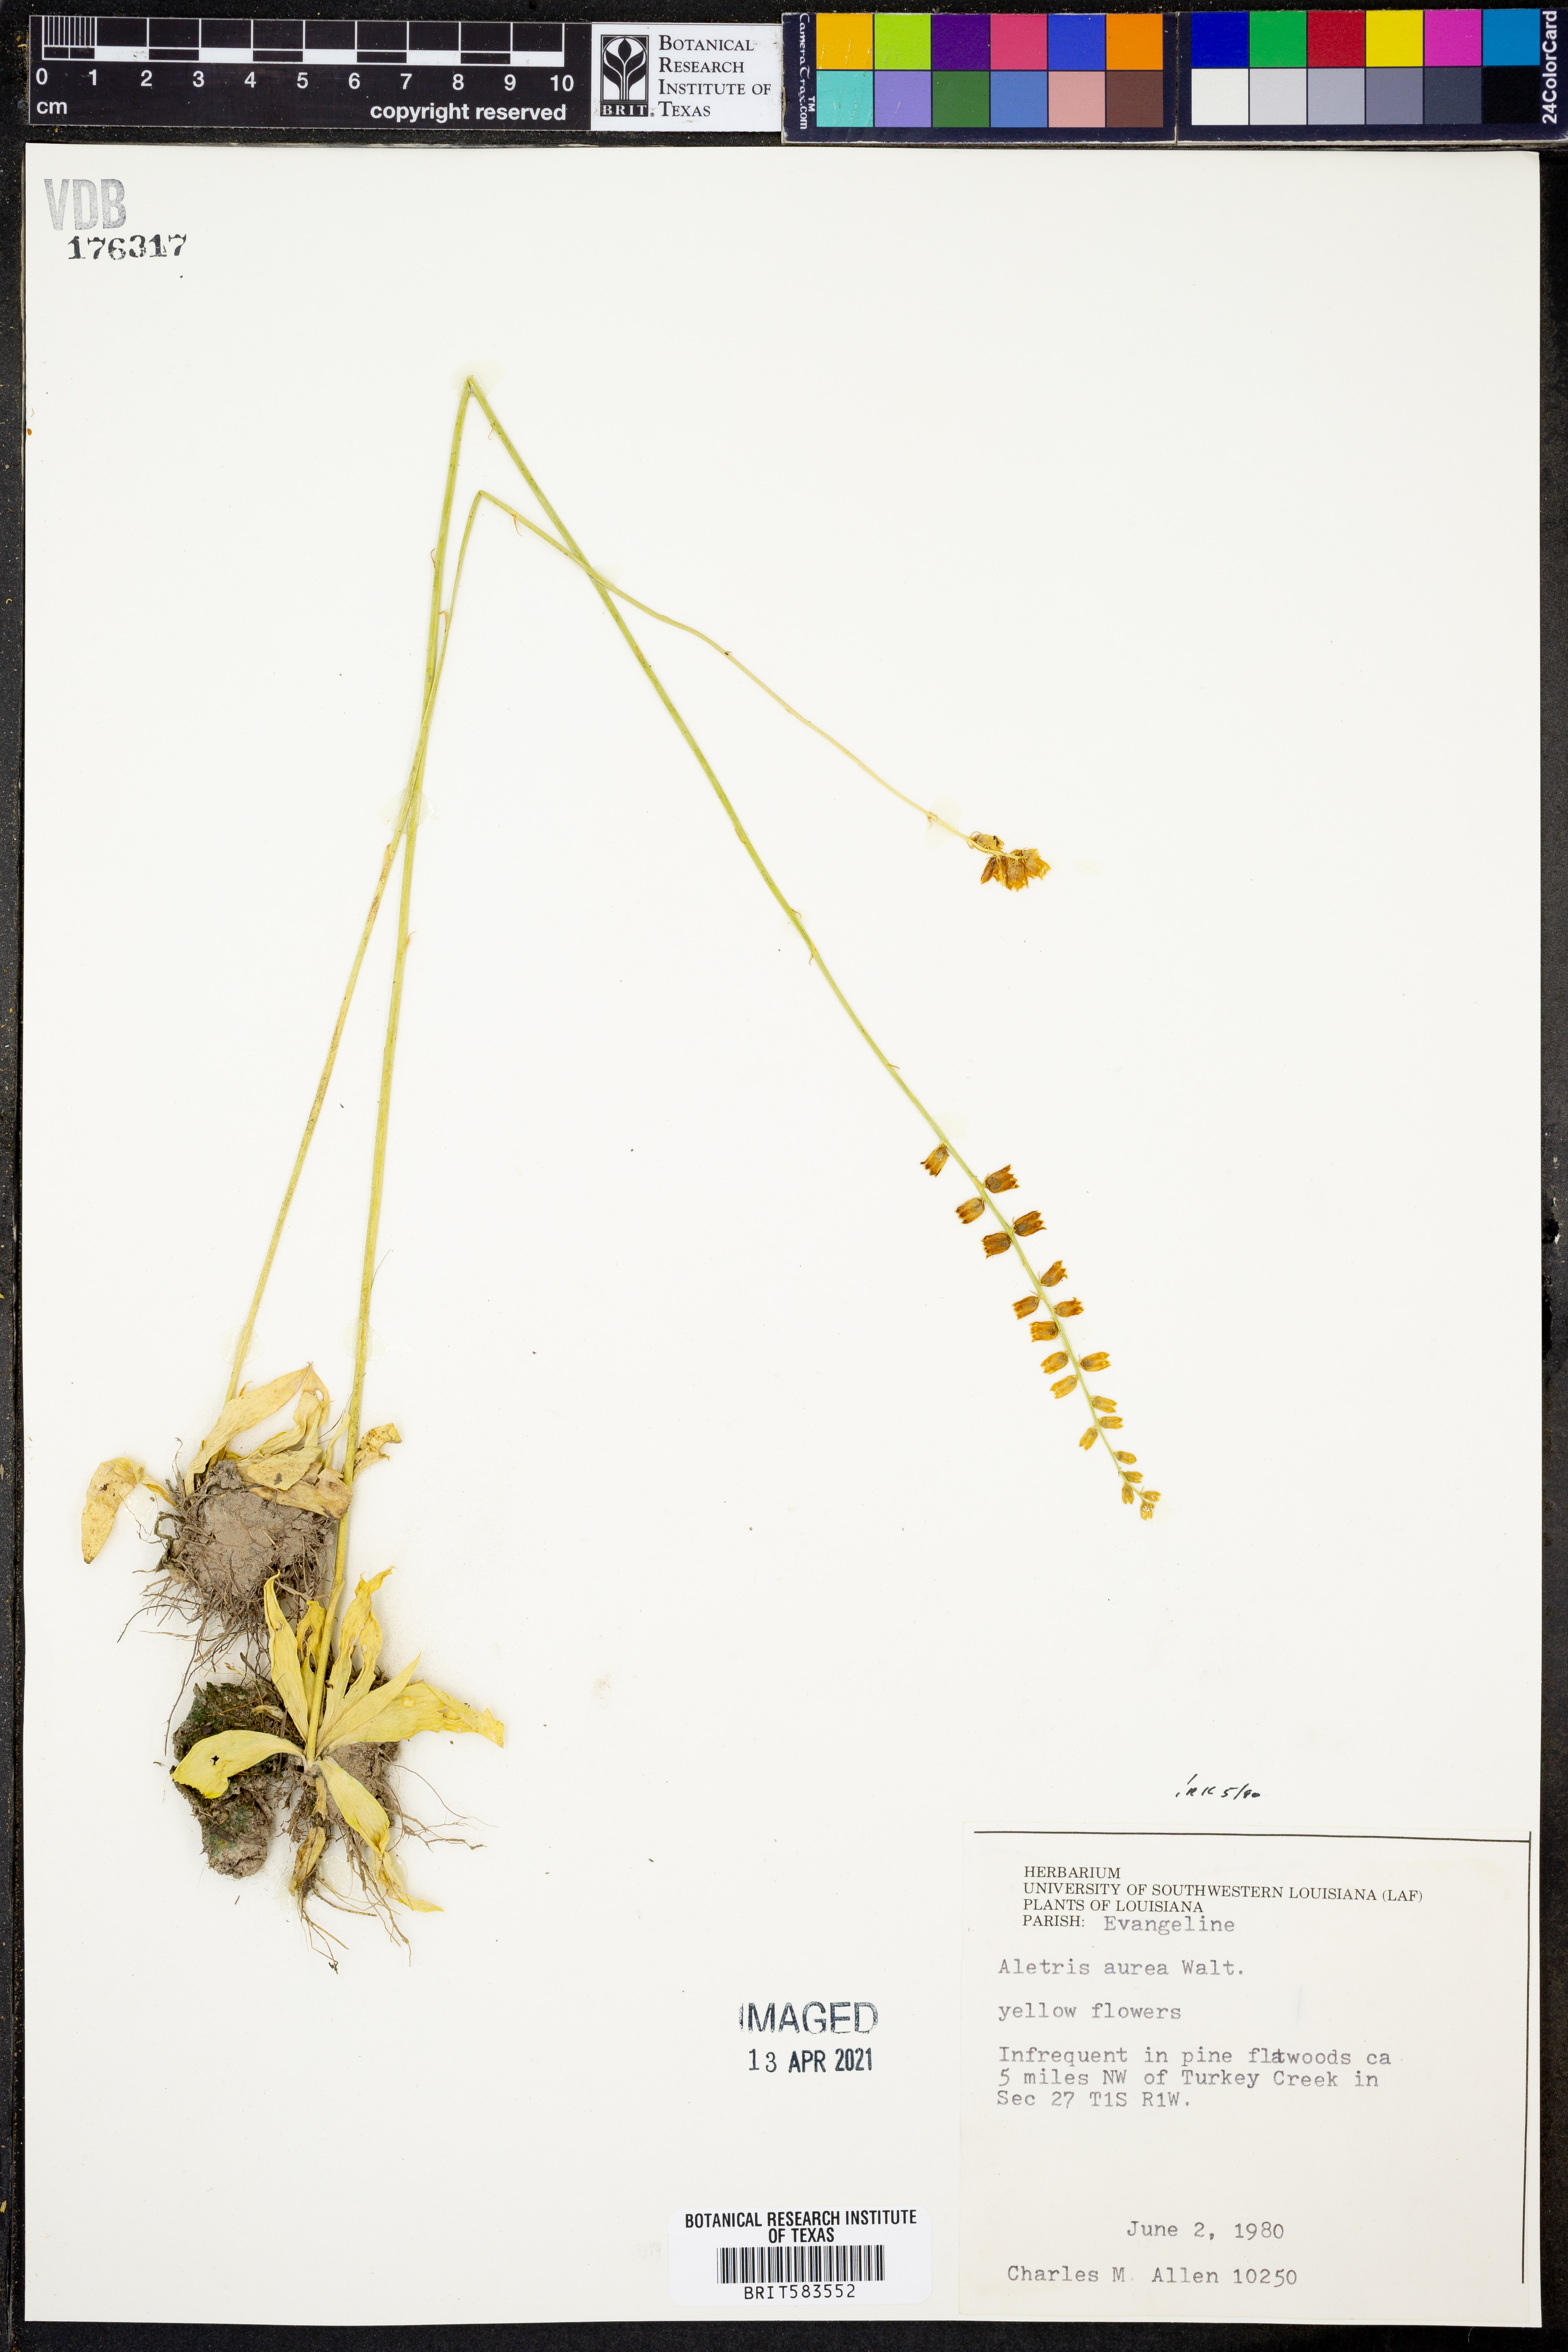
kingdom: Plantae
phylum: Tracheophyta
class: Liliopsida
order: Dioscoreales
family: Nartheciaceae
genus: Aletris
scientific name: Aletris aurea
